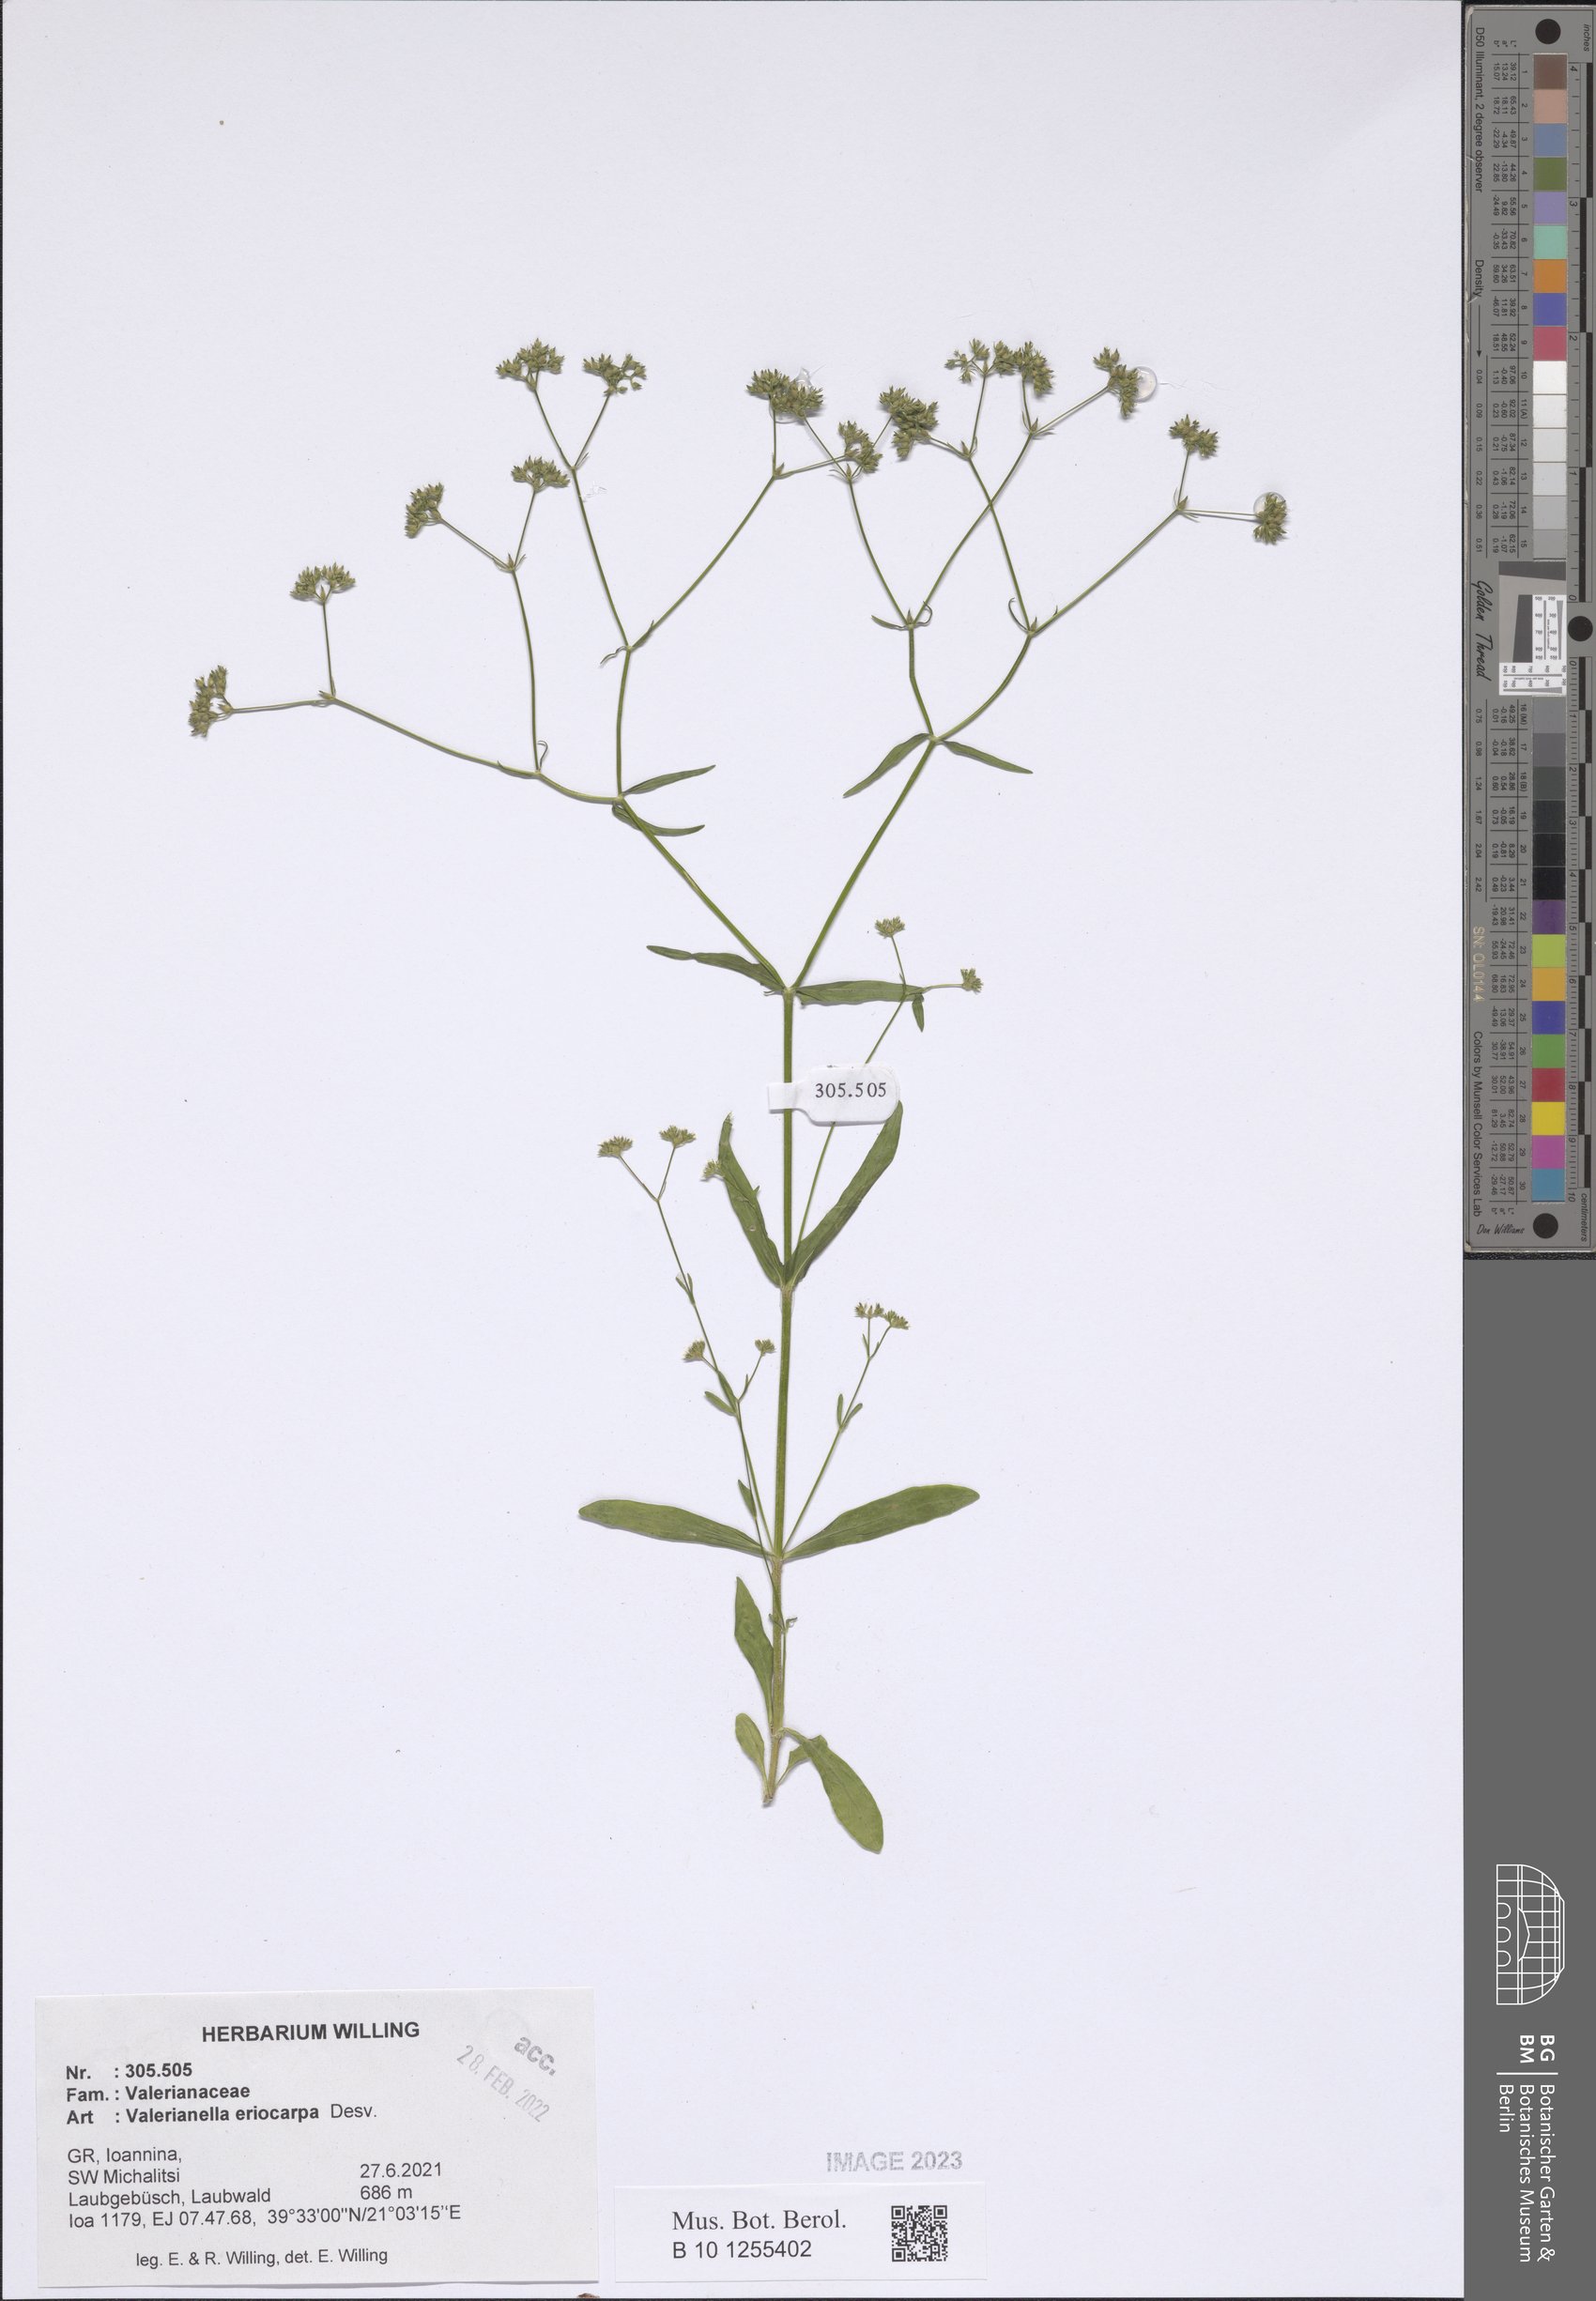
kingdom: Plantae
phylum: Tracheophyta
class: Magnoliopsida
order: Dipsacales
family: Caprifoliaceae
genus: Valerianella
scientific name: Valerianella eriocarpa
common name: Hairy-fruited cornsalad
